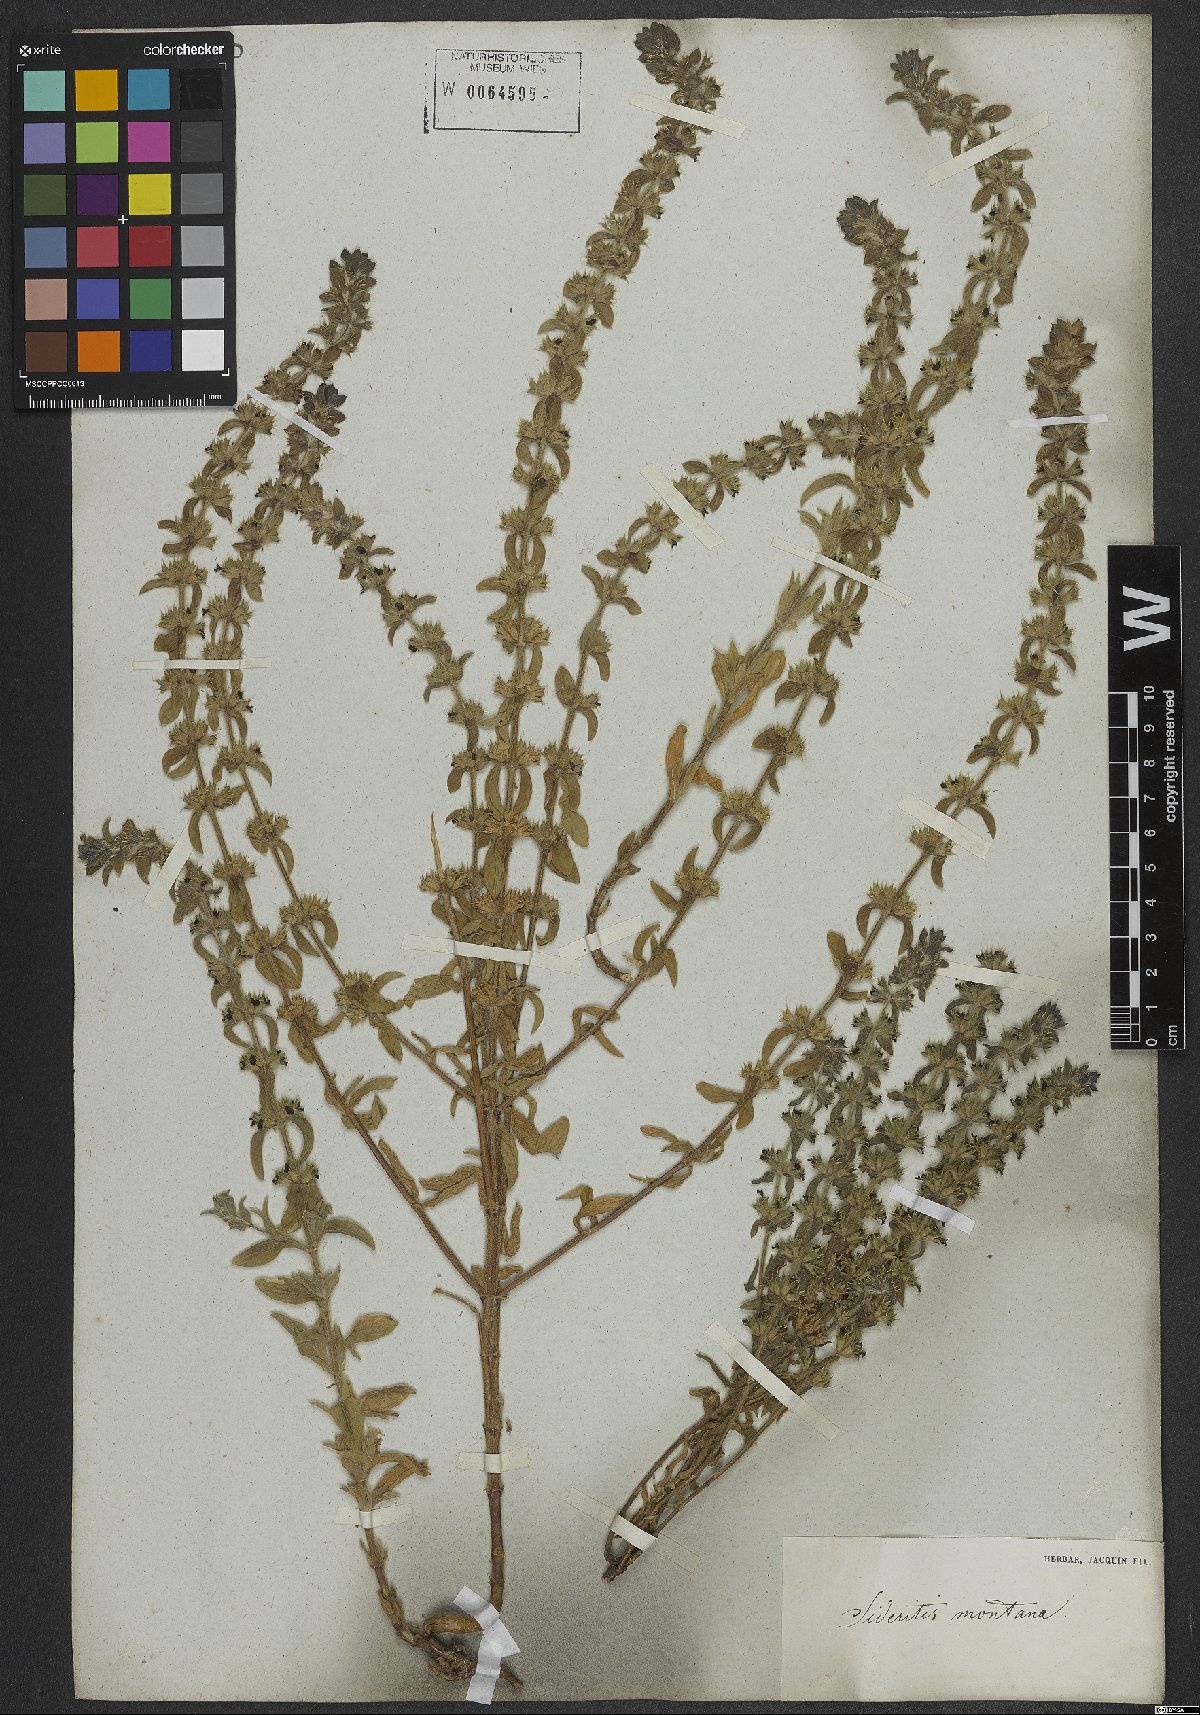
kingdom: Plantae
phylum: Tracheophyta
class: Magnoliopsida
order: Lamiales
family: Lamiaceae
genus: Sideritis
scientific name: Sideritis montana
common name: Mountain ironwort
